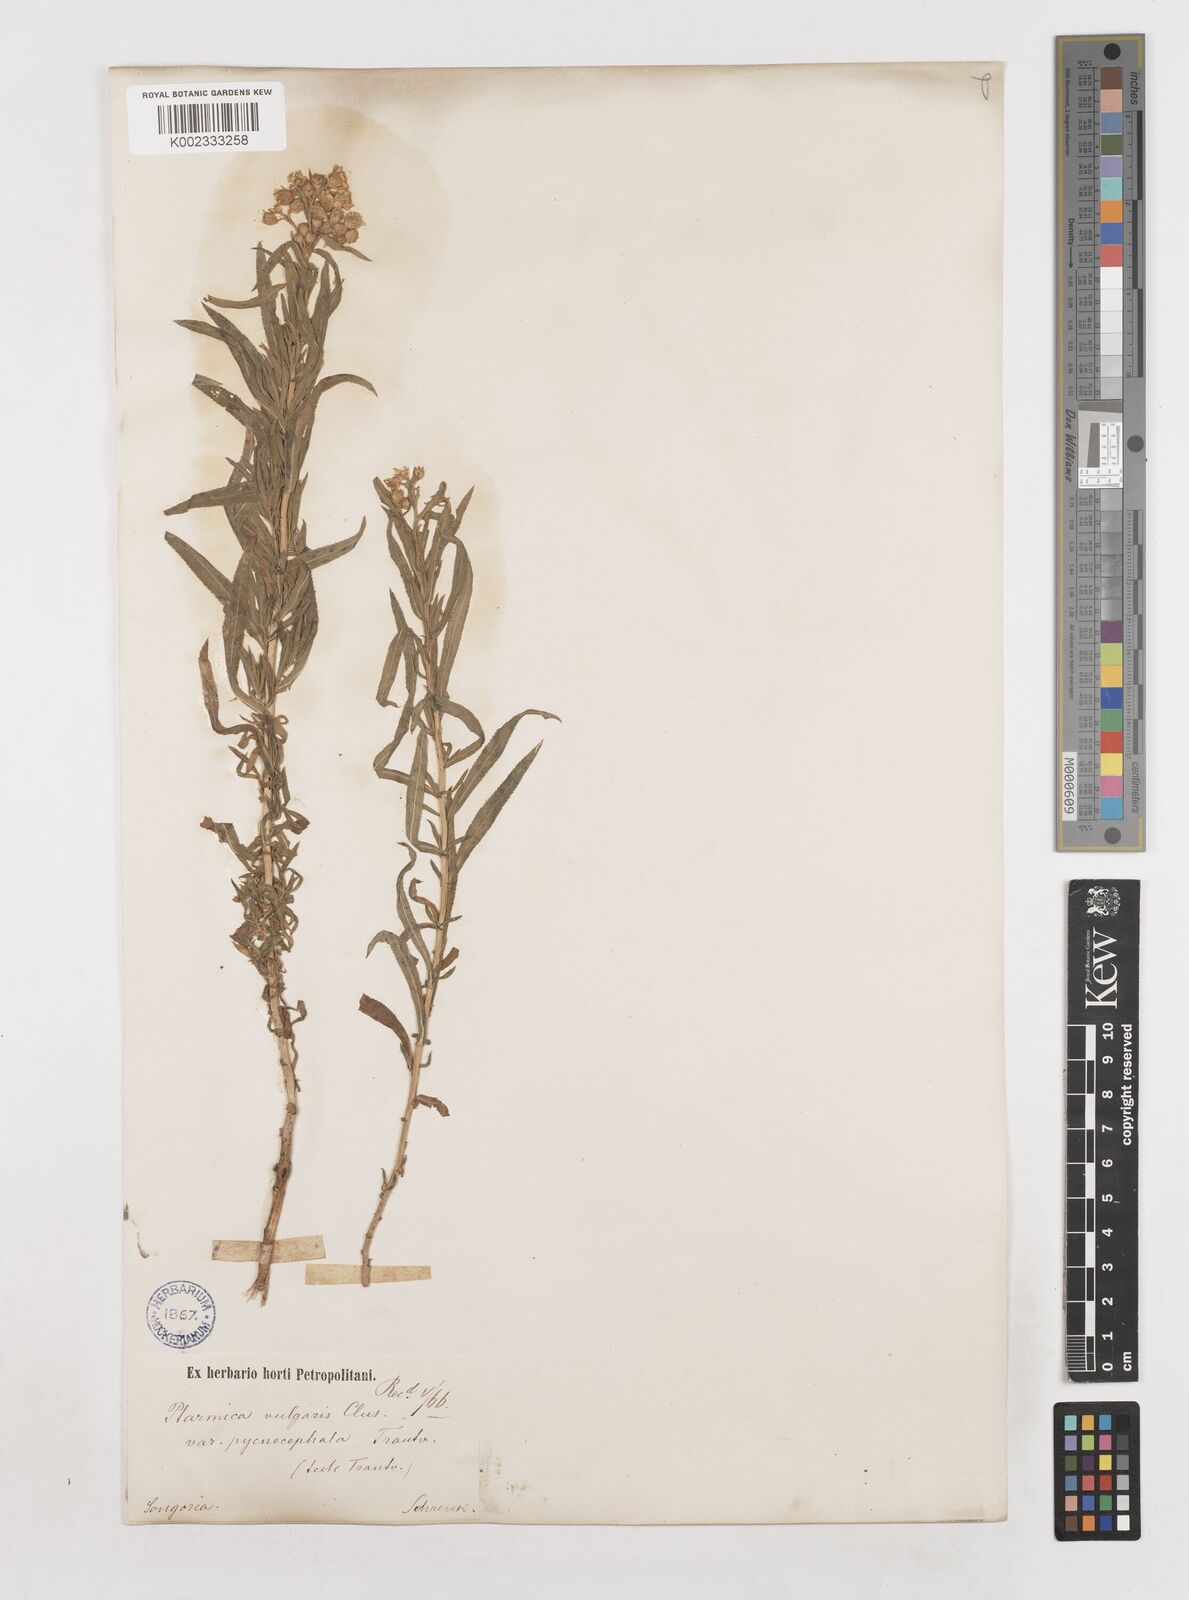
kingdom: Plantae
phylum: Tracheophyta
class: Magnoliopsida
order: Asterales
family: Asteraceae
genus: Achillea
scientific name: Achillea
